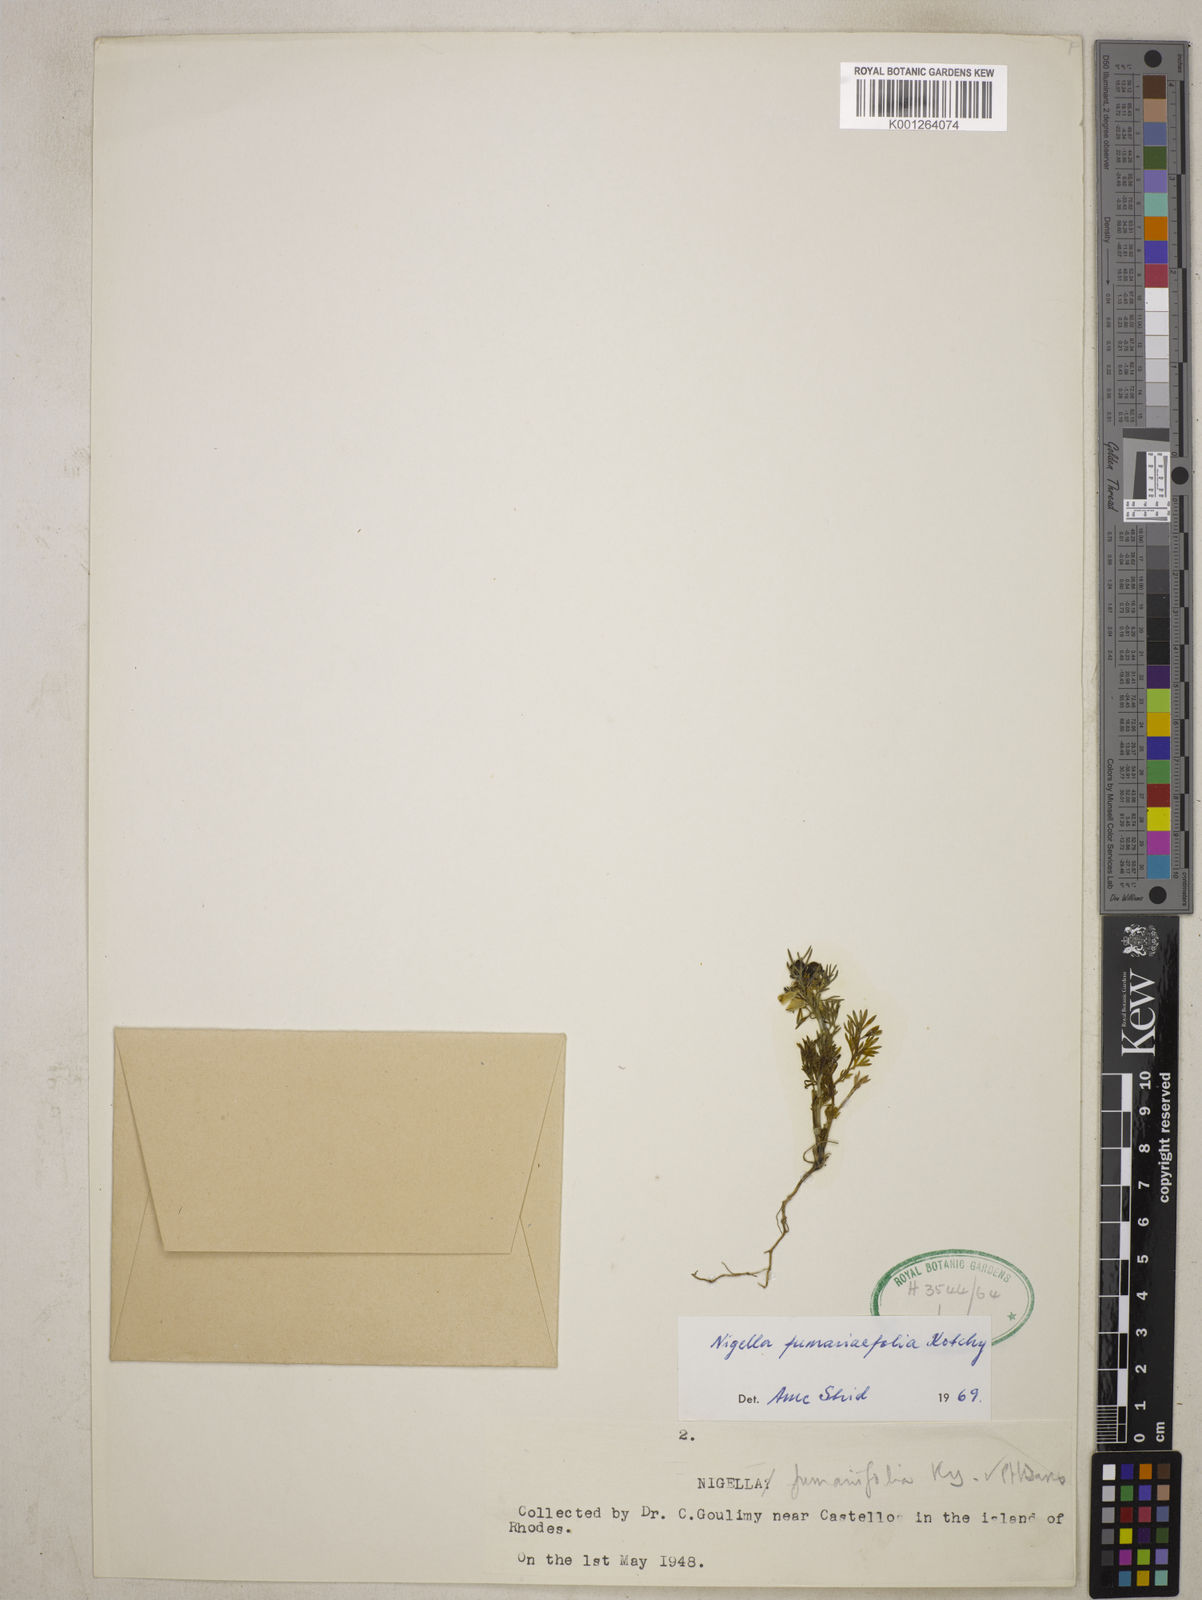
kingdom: Plantae
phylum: Tracheophyta
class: Magnoliopsida
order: Ranunculales
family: Ranunculaceae
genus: Nigella
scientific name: Nigella
